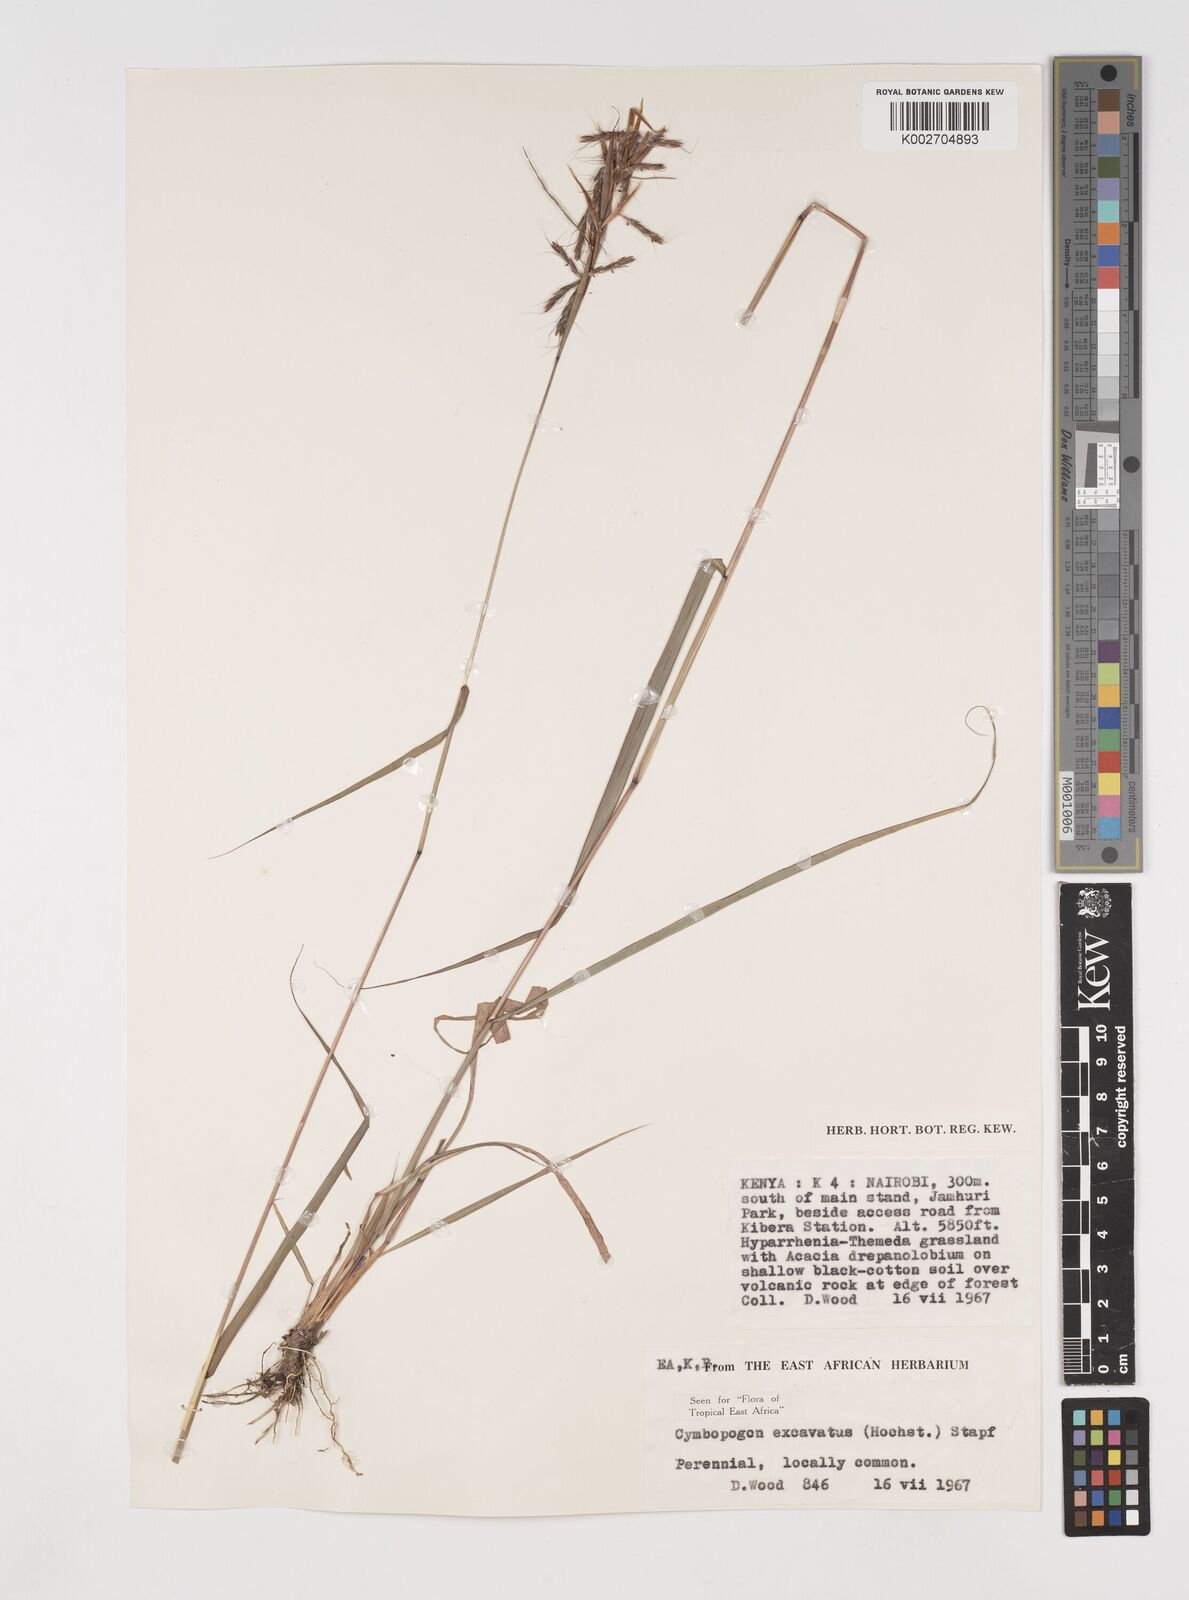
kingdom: Plantae
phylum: Tracheophyta
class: Liliopsida
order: Poales
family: Poaceae
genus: Cymbopogon
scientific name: Cymbopogon caesius
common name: Kachi grass
